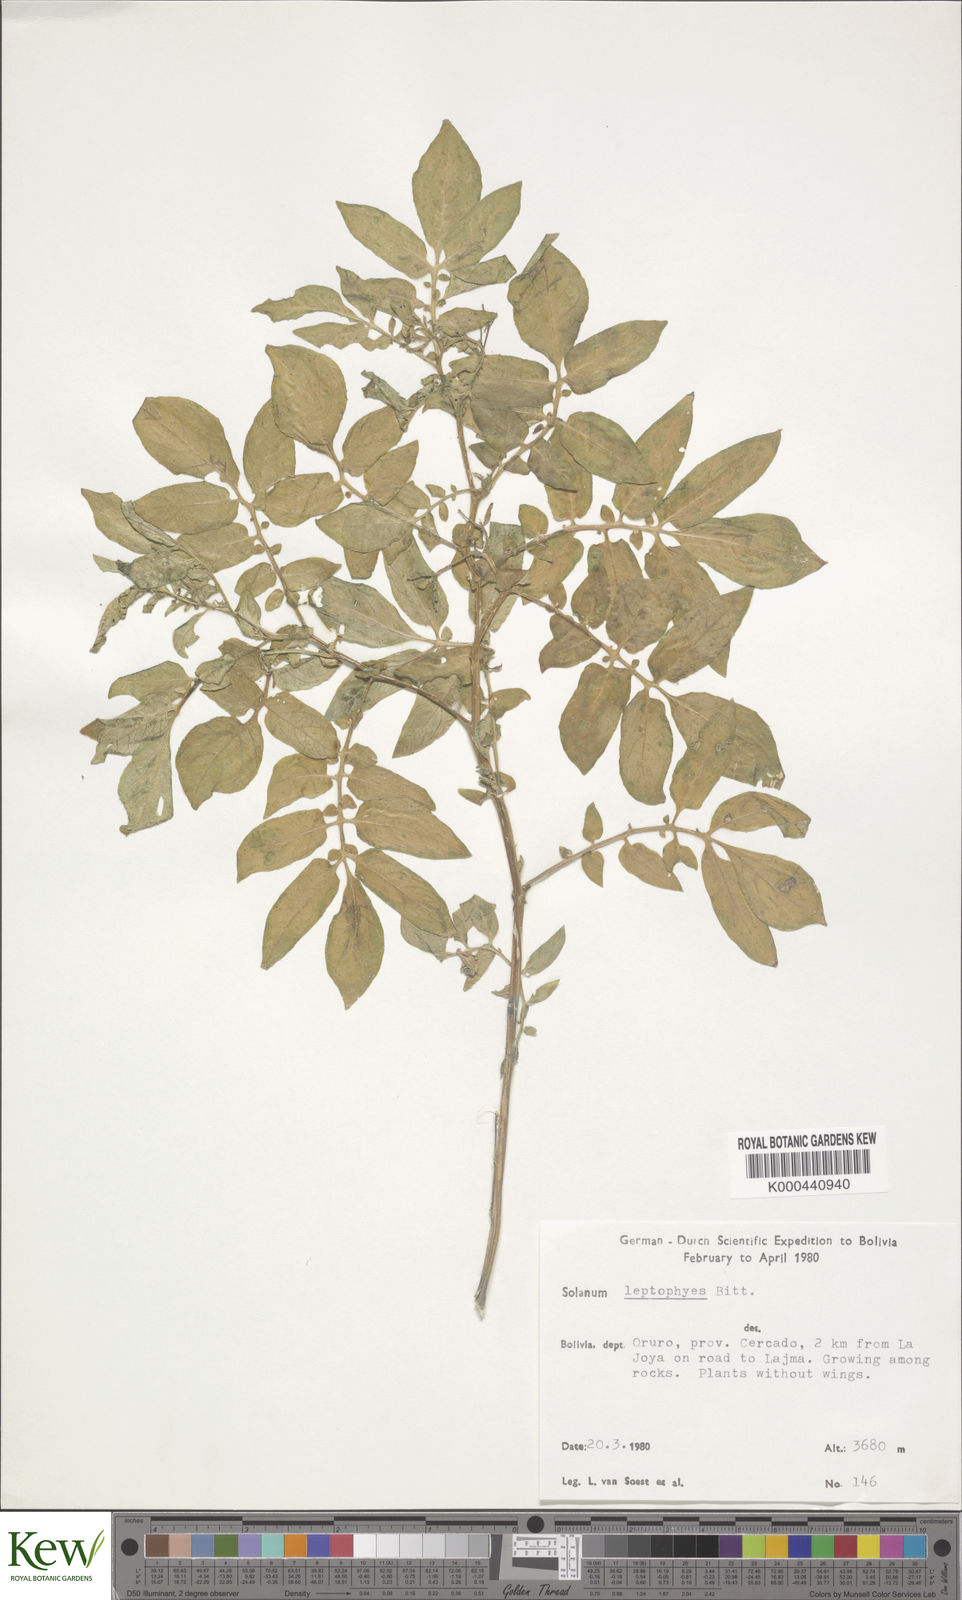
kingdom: Plantae
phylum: Tracheophyta
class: Magnoliopsida
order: Solanales
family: Solanaceae
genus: Solanum
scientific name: Solanum brevicaule
